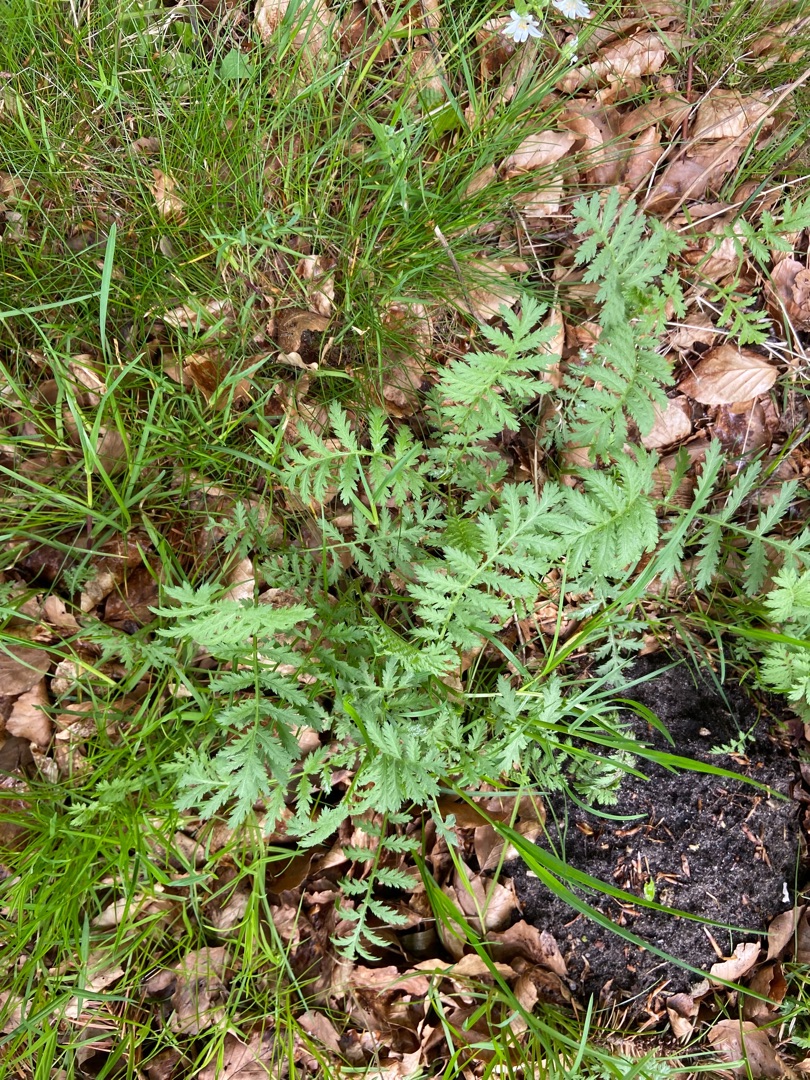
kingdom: Plantae
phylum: Tracheophyta
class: Magnoliopsida
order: Asterales
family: Asteraceae
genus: Tanacetum
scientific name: Tanacetum vulgare
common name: Rejnfan
